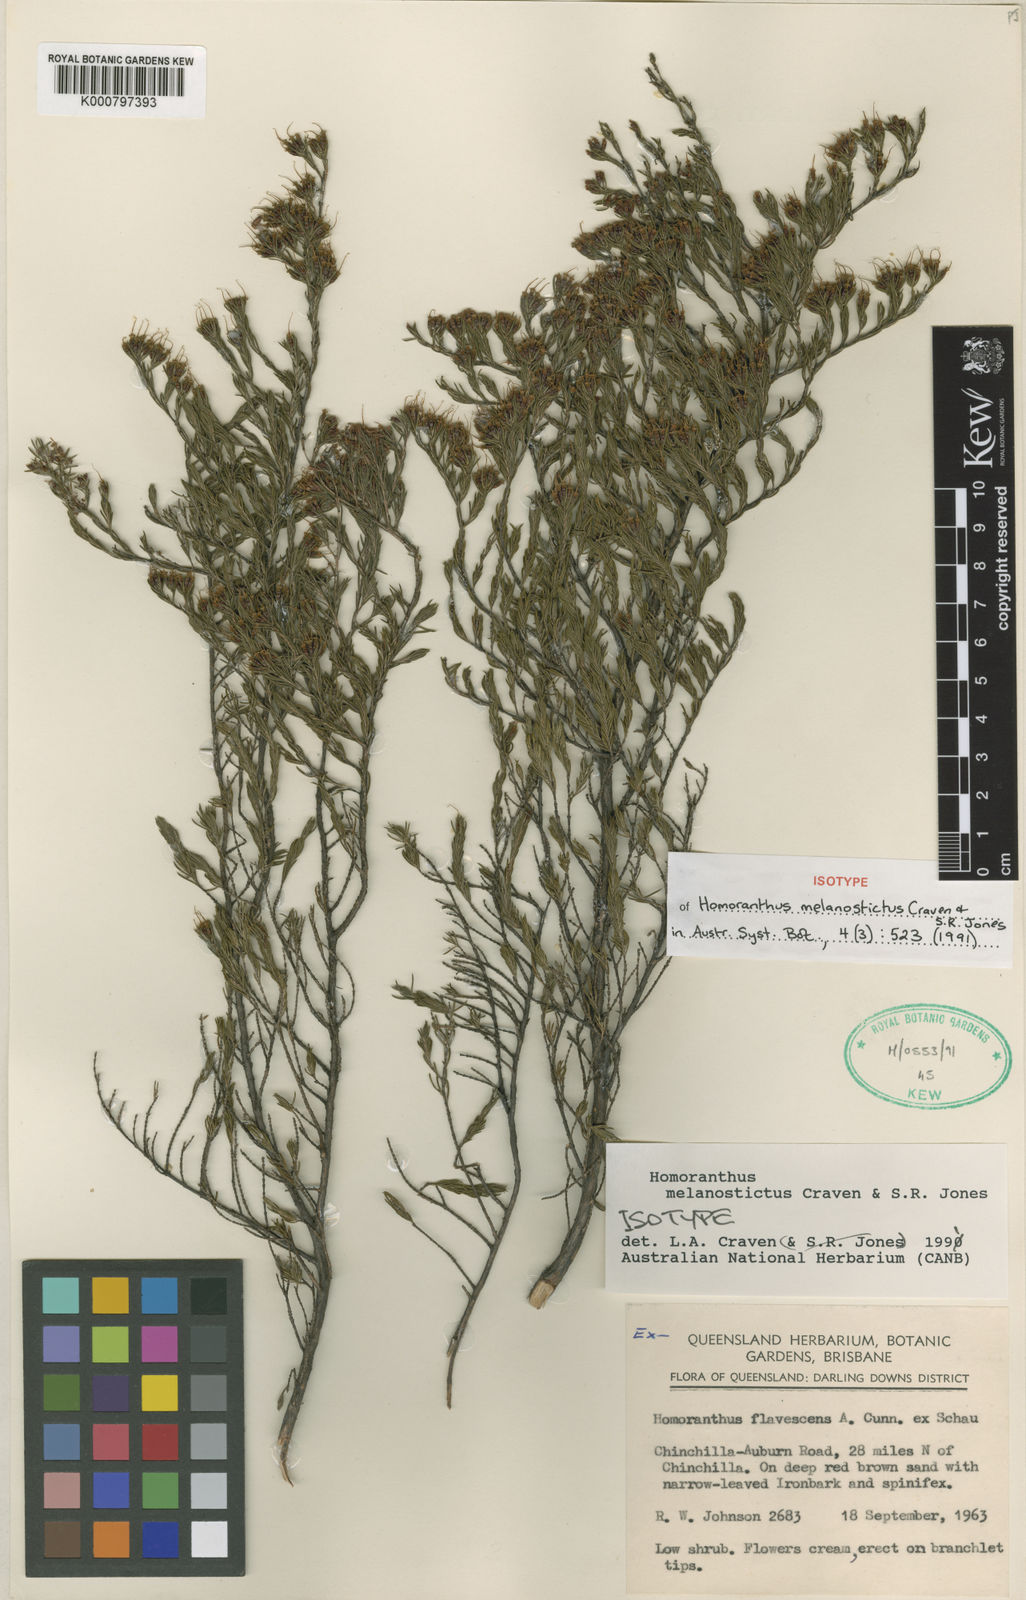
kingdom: Plantae
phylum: Tracheophyta
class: Magnoliopsida
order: Myrtales
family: Myrtaceae
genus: Homoranthus
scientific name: Homoranthus melanostictus
